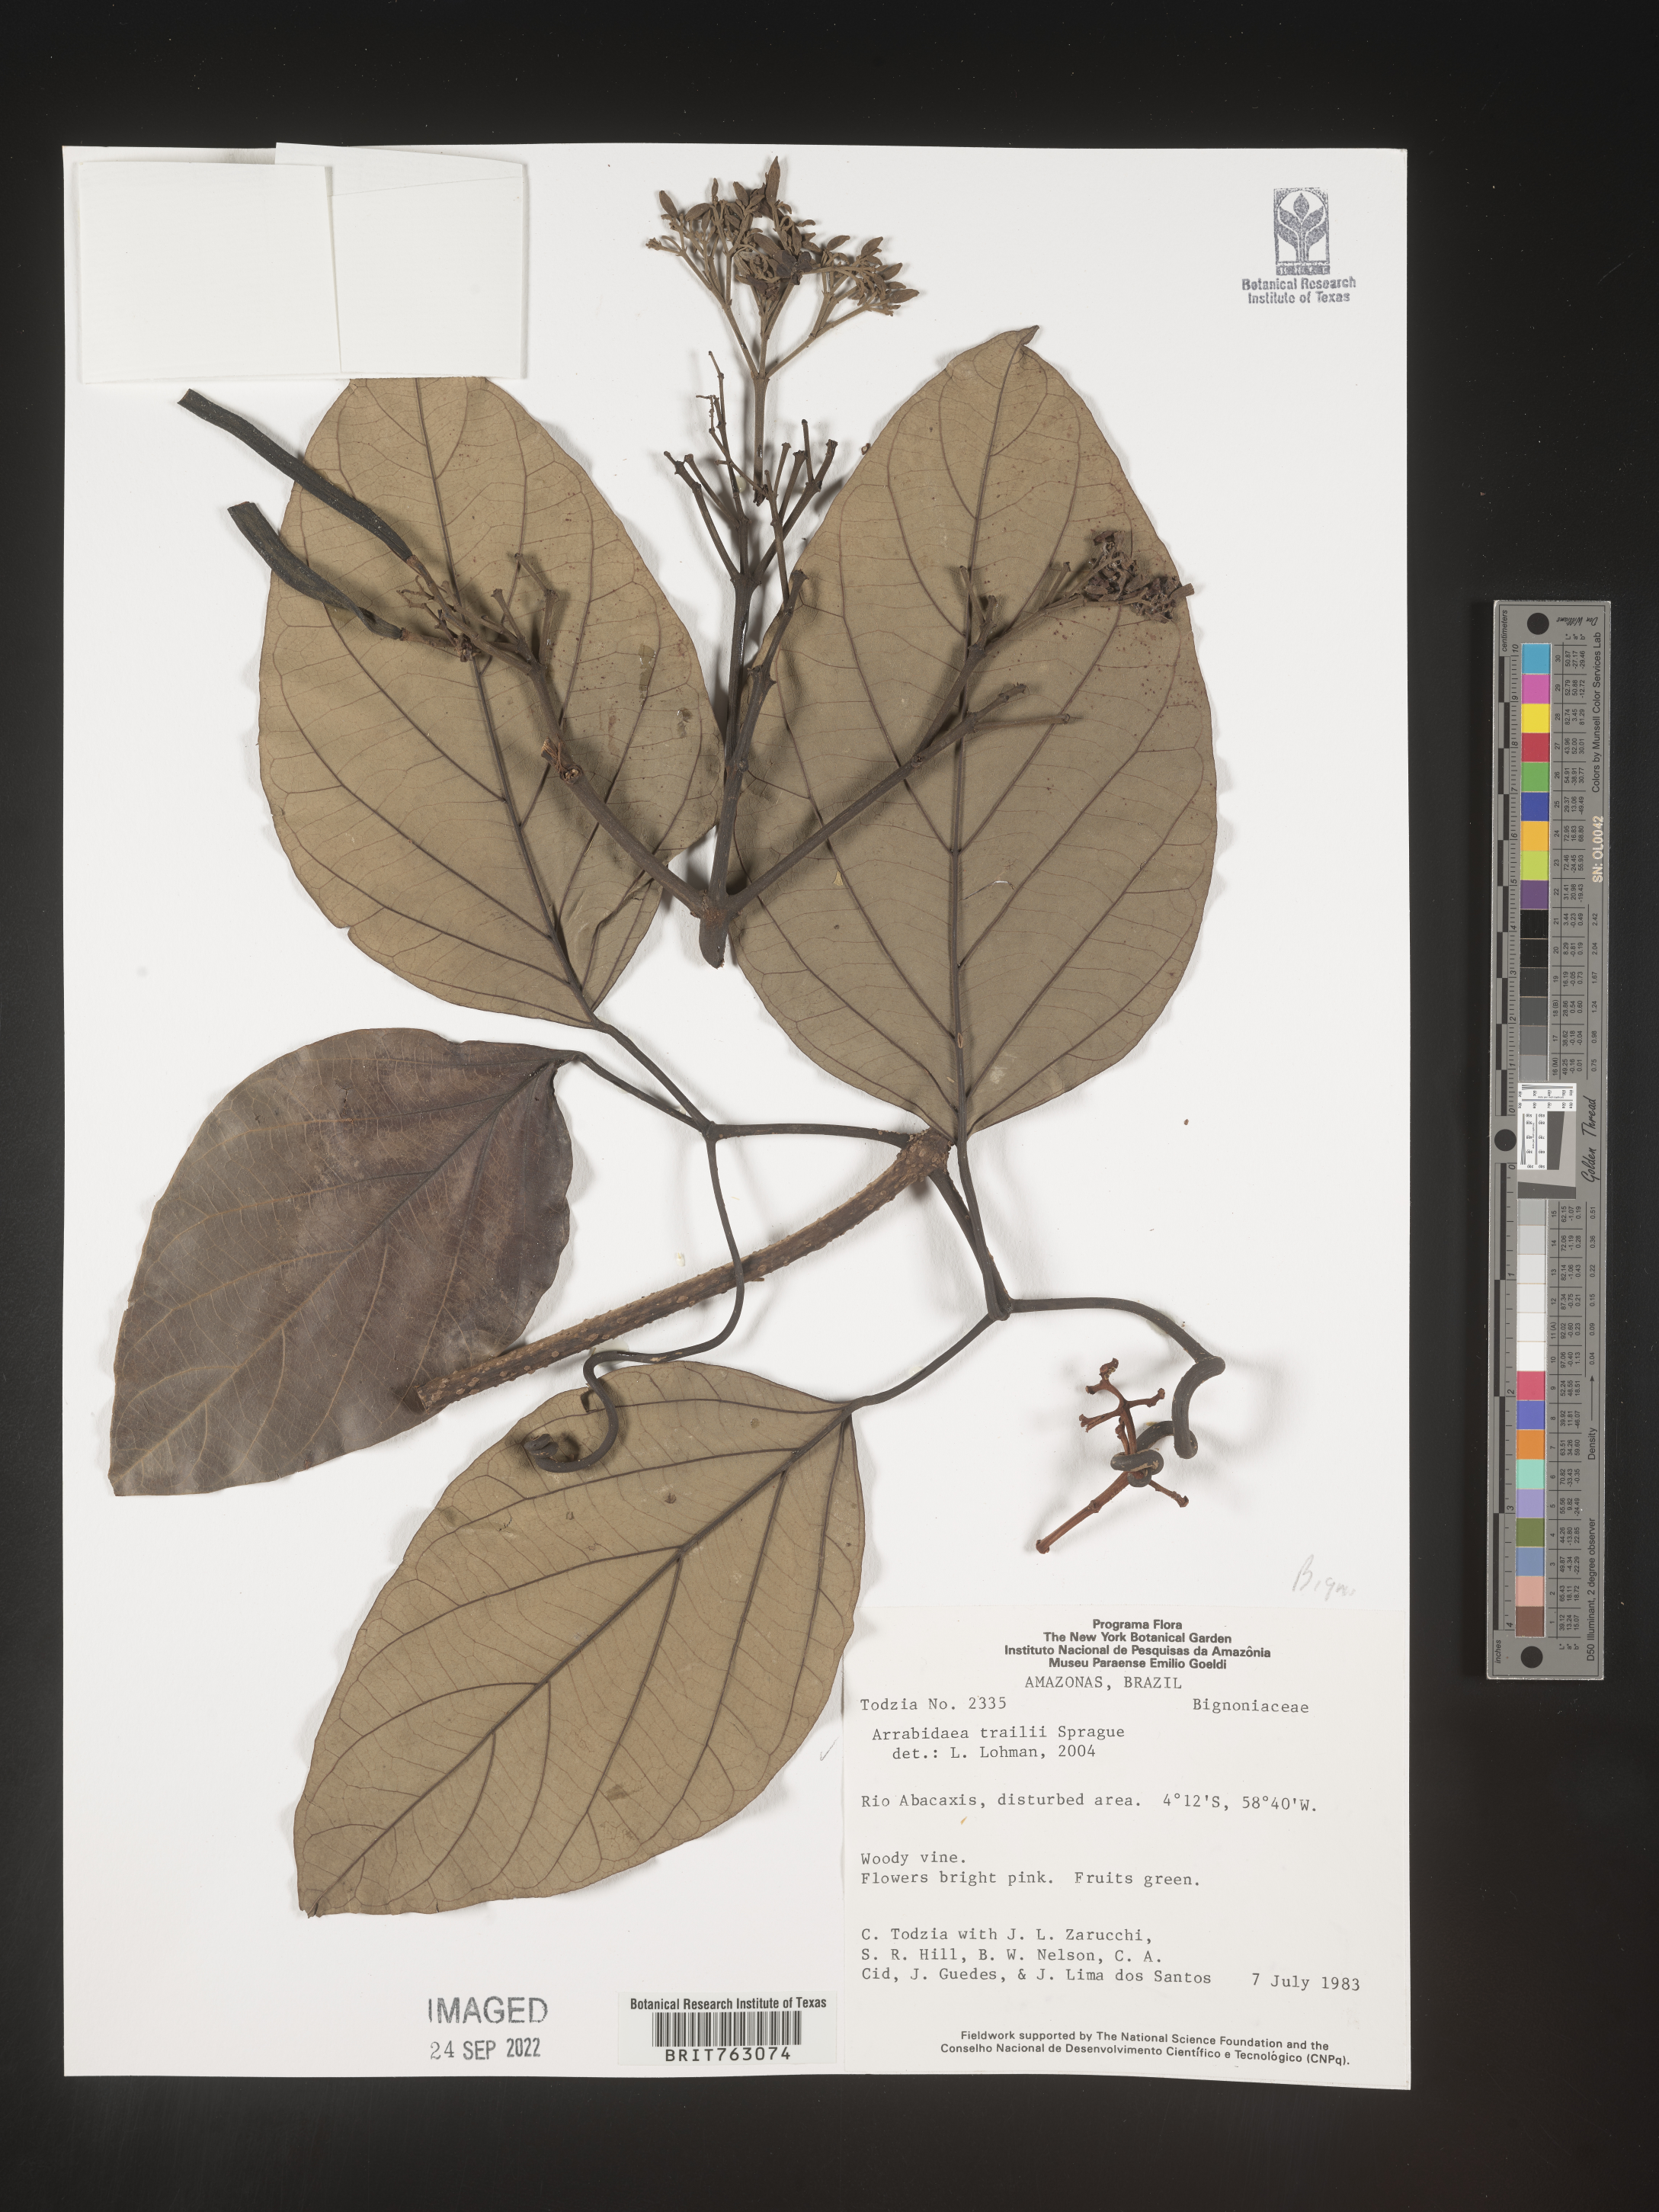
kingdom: Plantae
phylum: Tracheophyta
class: Magnoliopsida
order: Rosales
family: Rhamnaceae
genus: Arrabidaea
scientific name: Arrabidaea
